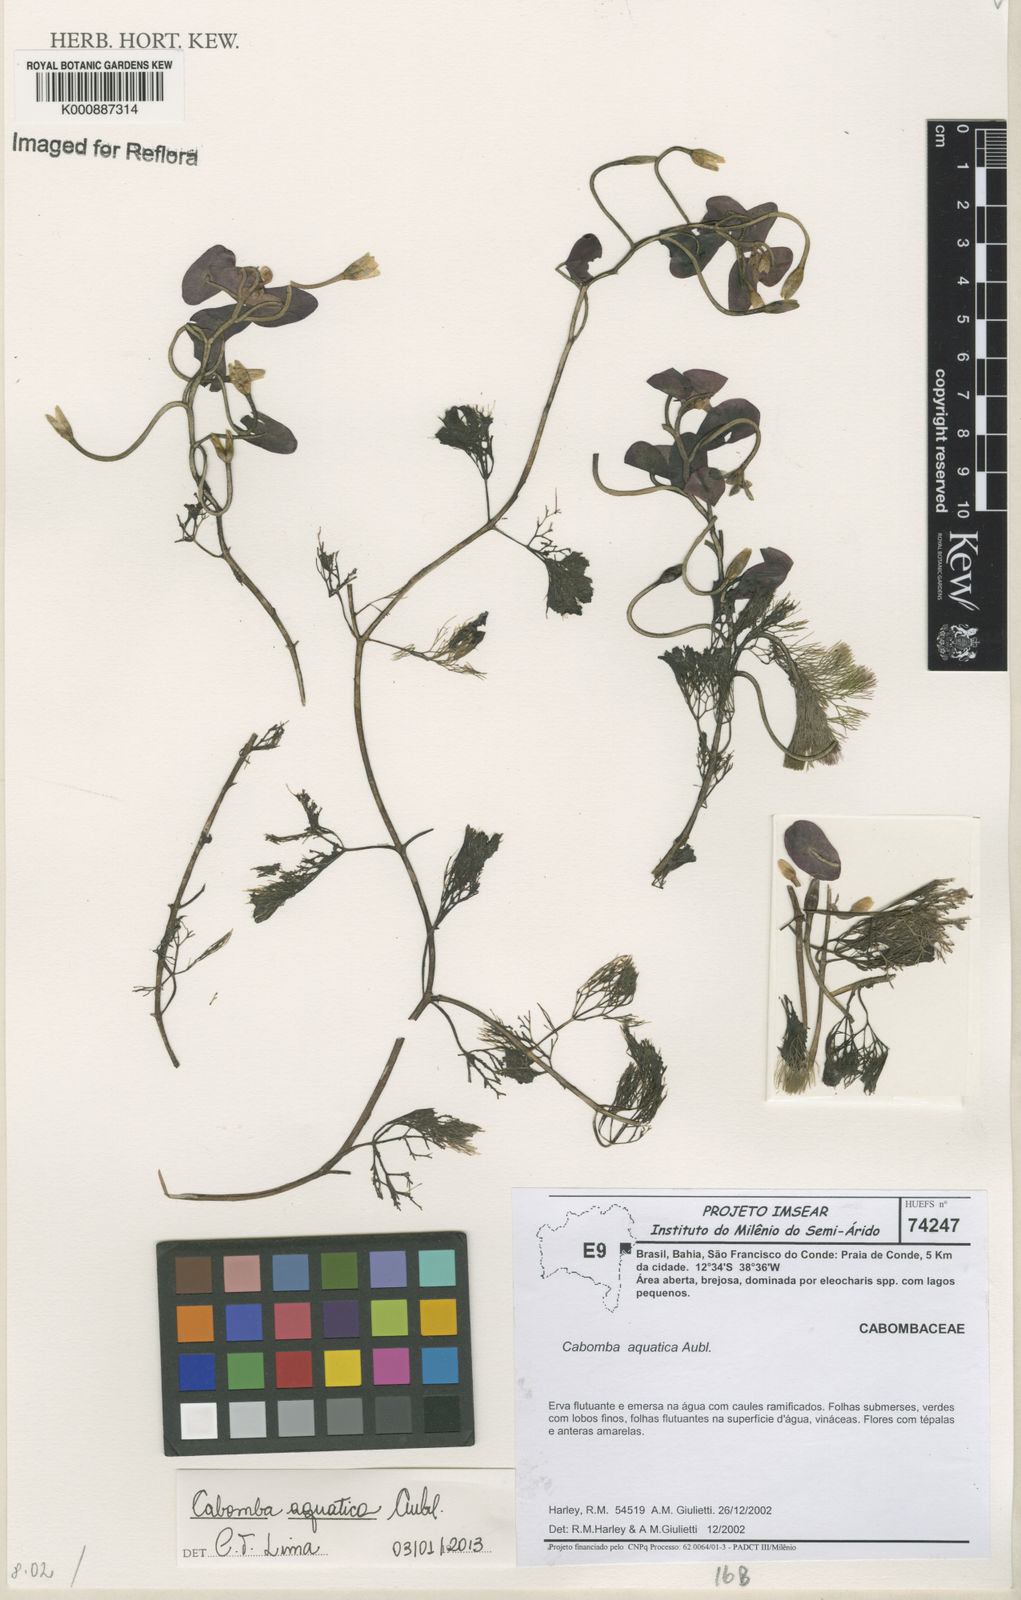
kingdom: Plantae
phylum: Tracheophyta
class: Magnoliopsida
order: Nymphaeales
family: Cabombaceae
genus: Cabomba
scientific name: Cabomba aquatica
